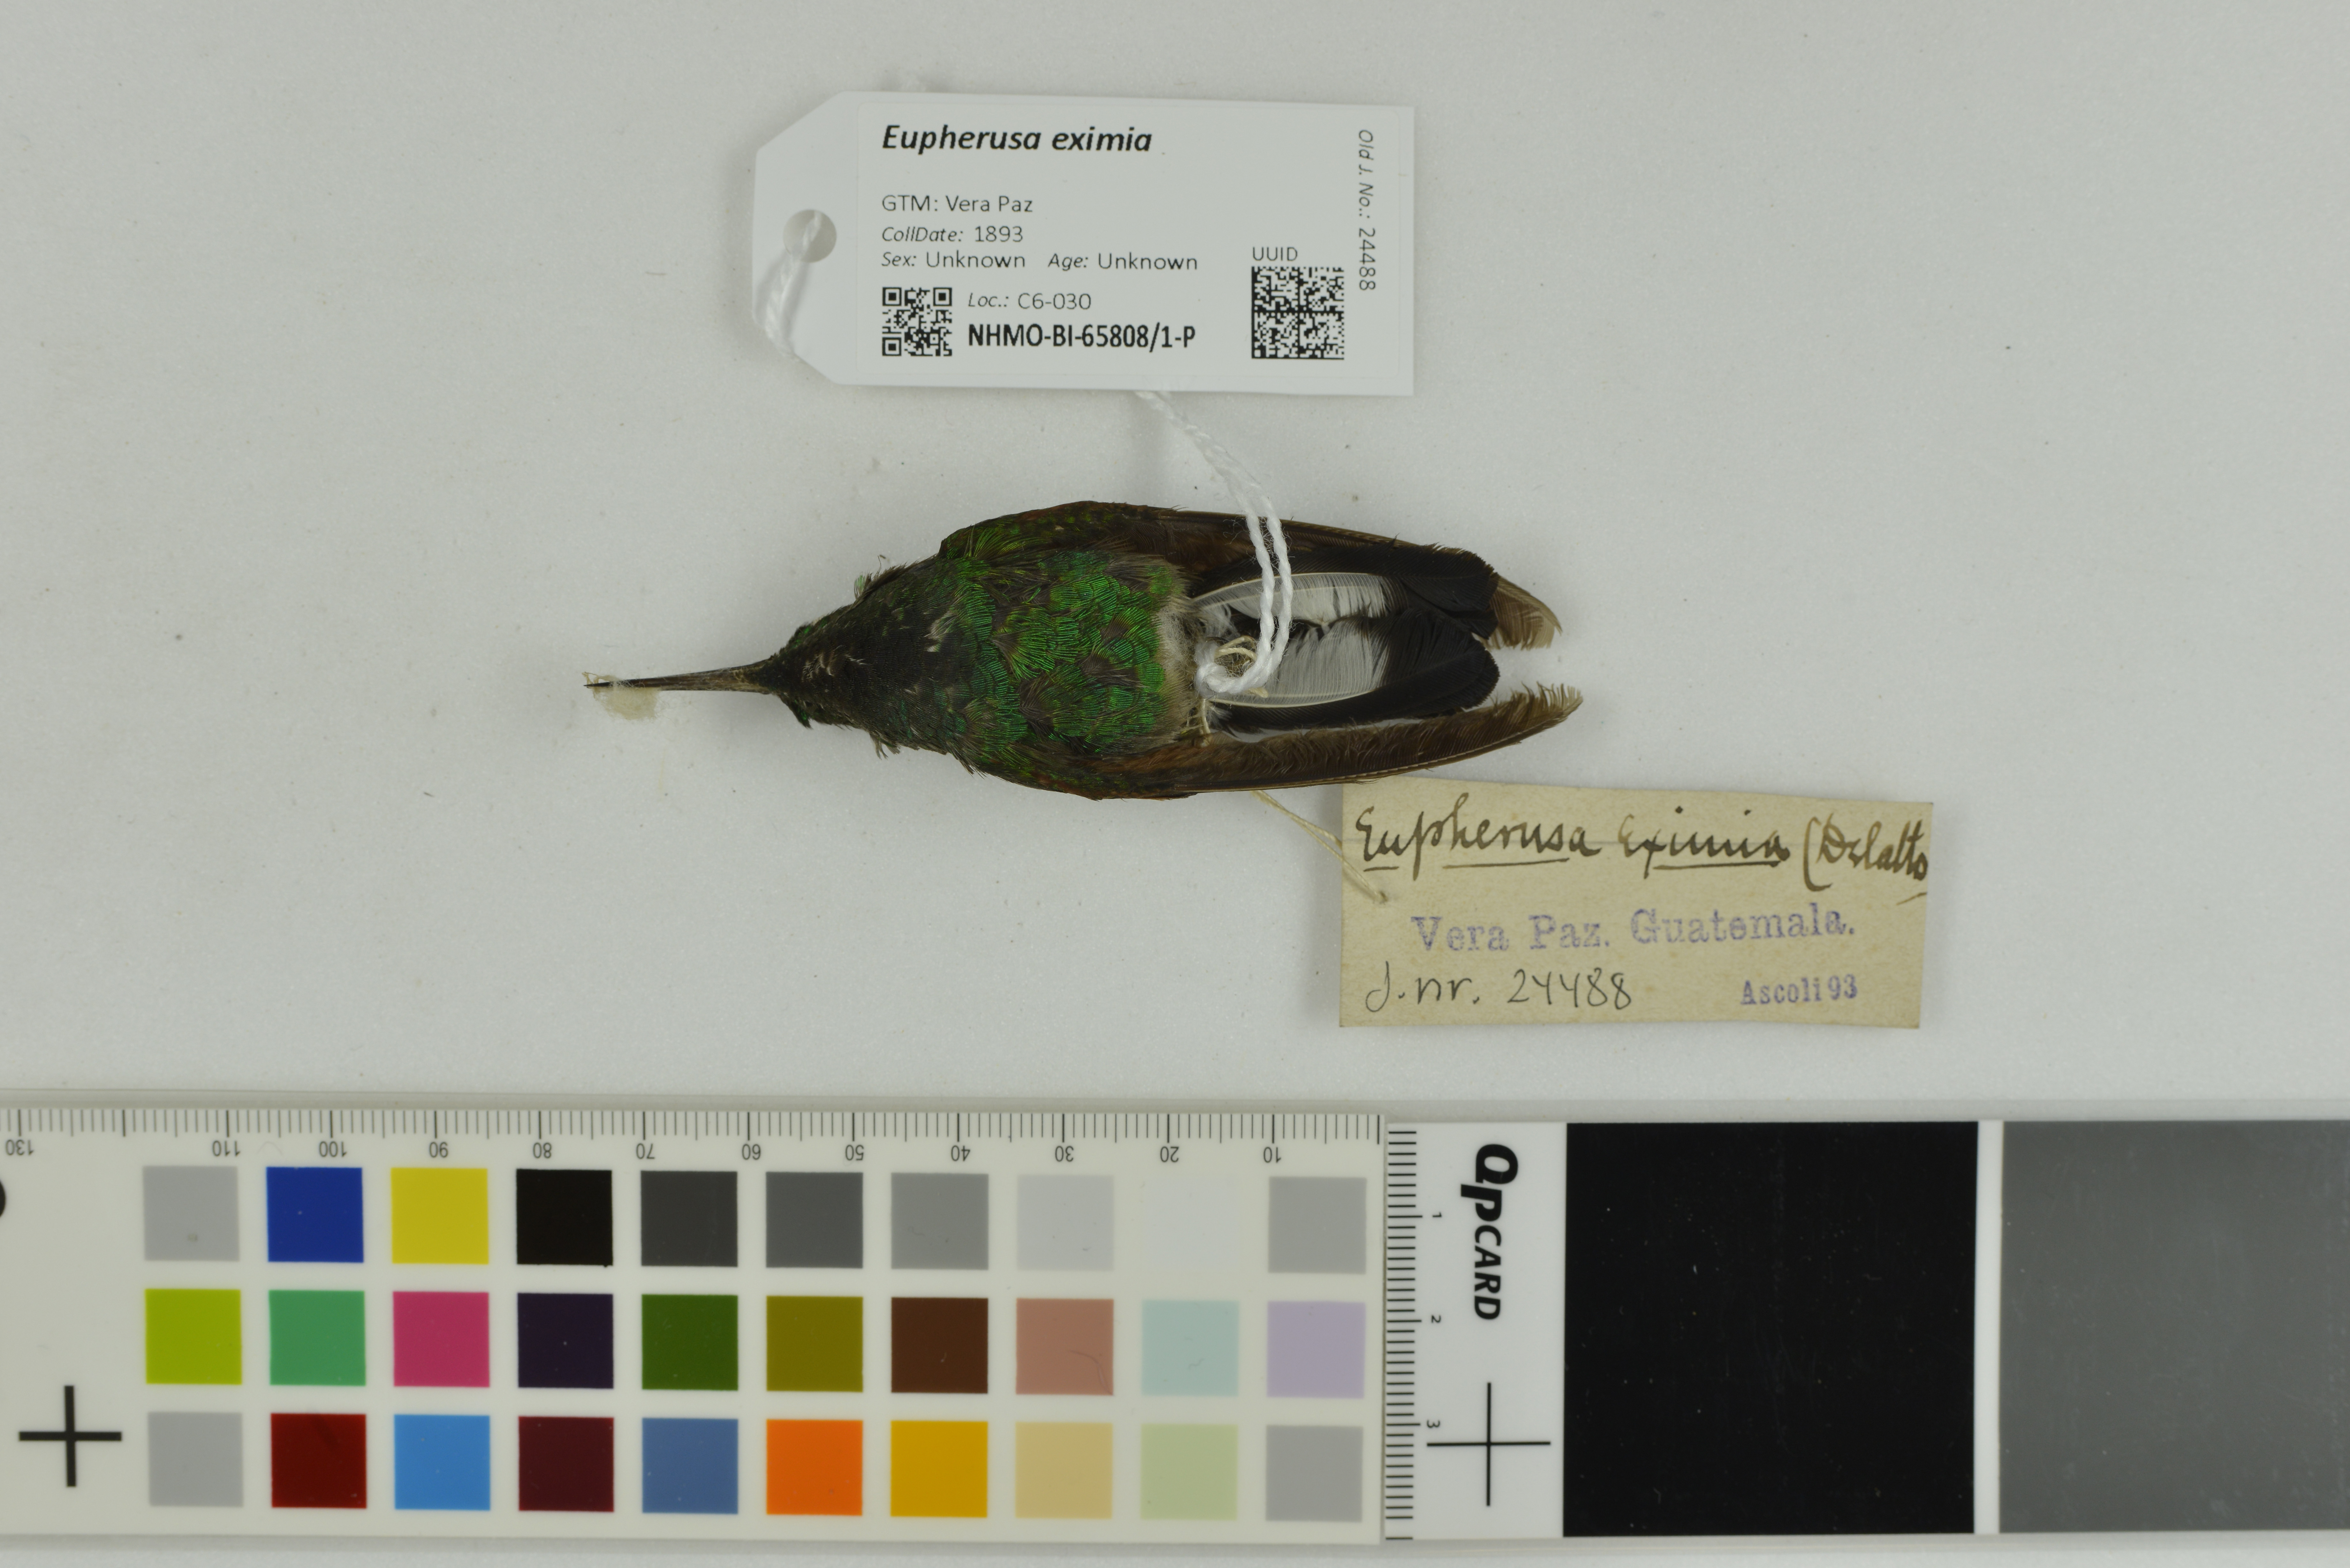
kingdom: Animalia
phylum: Chordata
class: Aves
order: Apodiformes
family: Trochilidae
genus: Eupherusa
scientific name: Eupherusa eximia
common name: Stripe-tailed hummingbird
